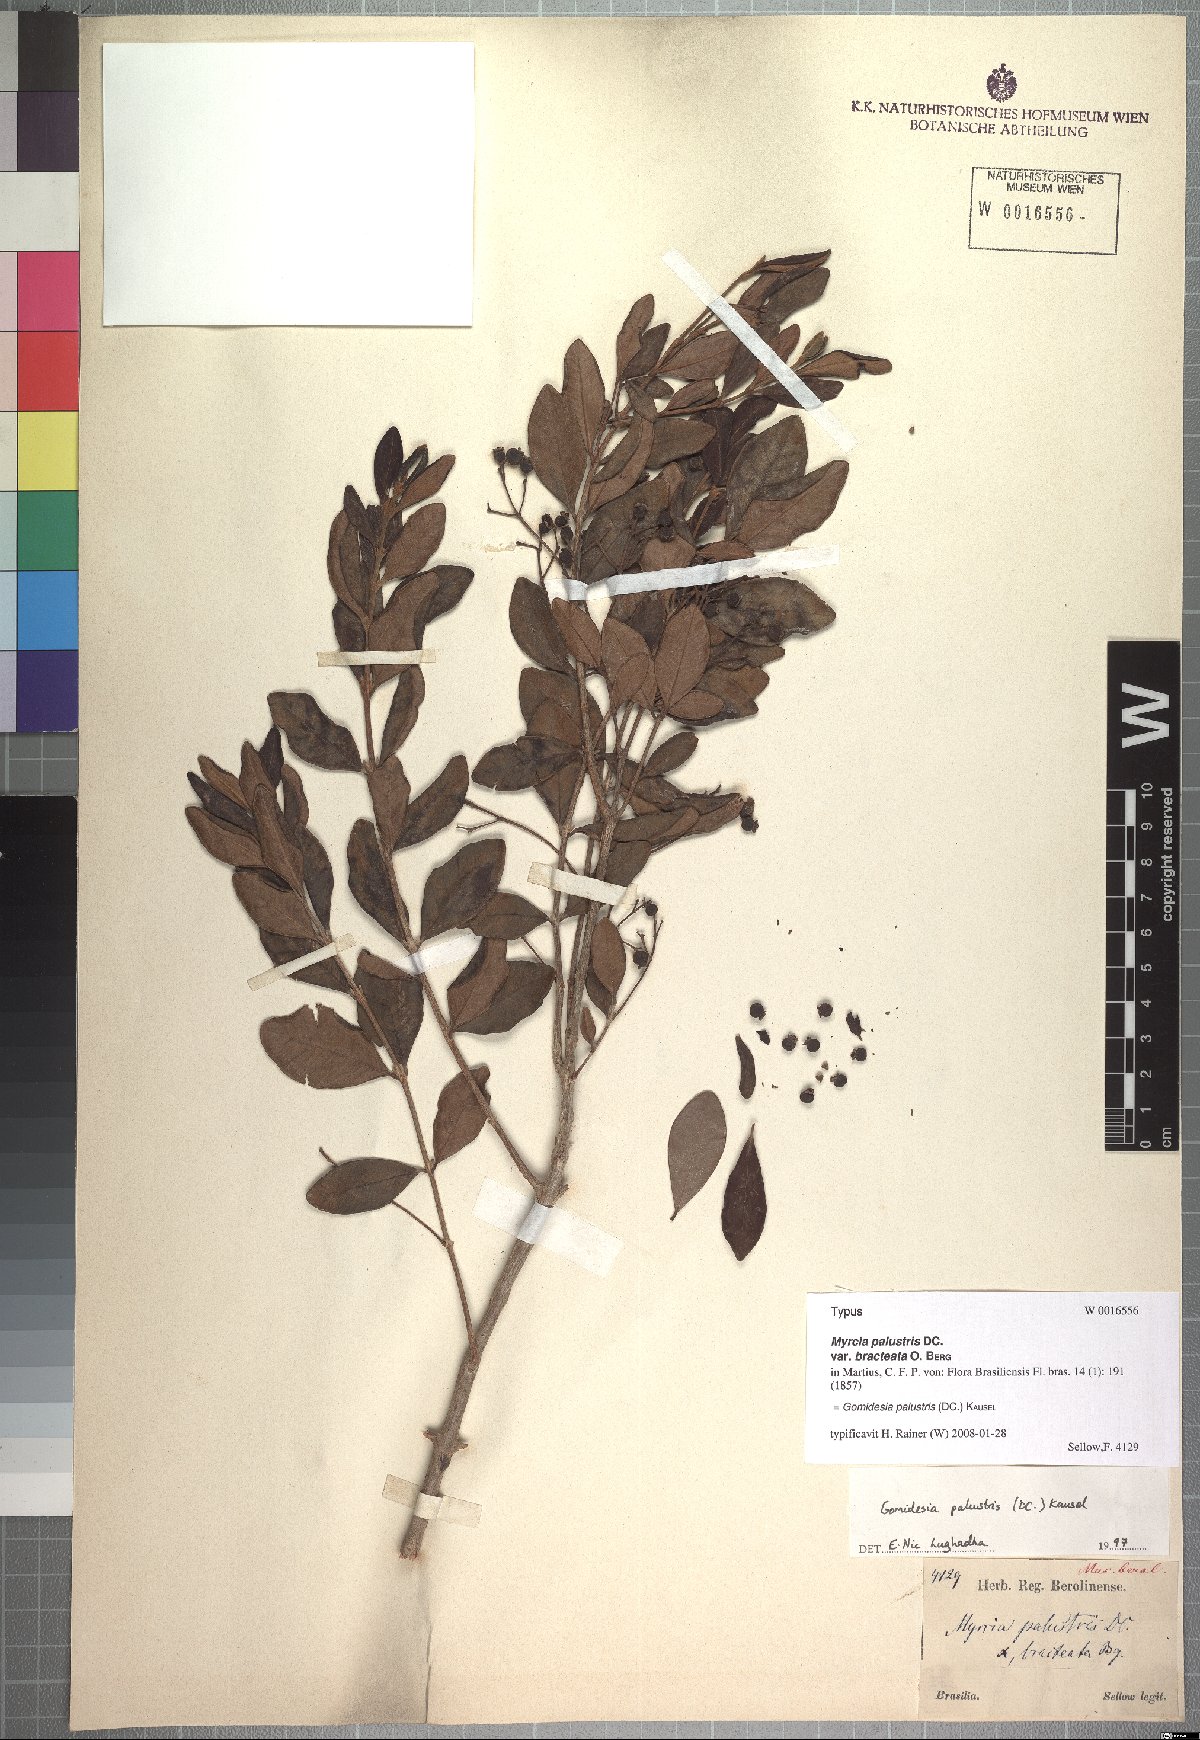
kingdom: Plantae
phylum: Tracheophyta
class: Magnoliopsida
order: Myrtales
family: Myrtaceae
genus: Myrcia
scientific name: Myrcia palustris
